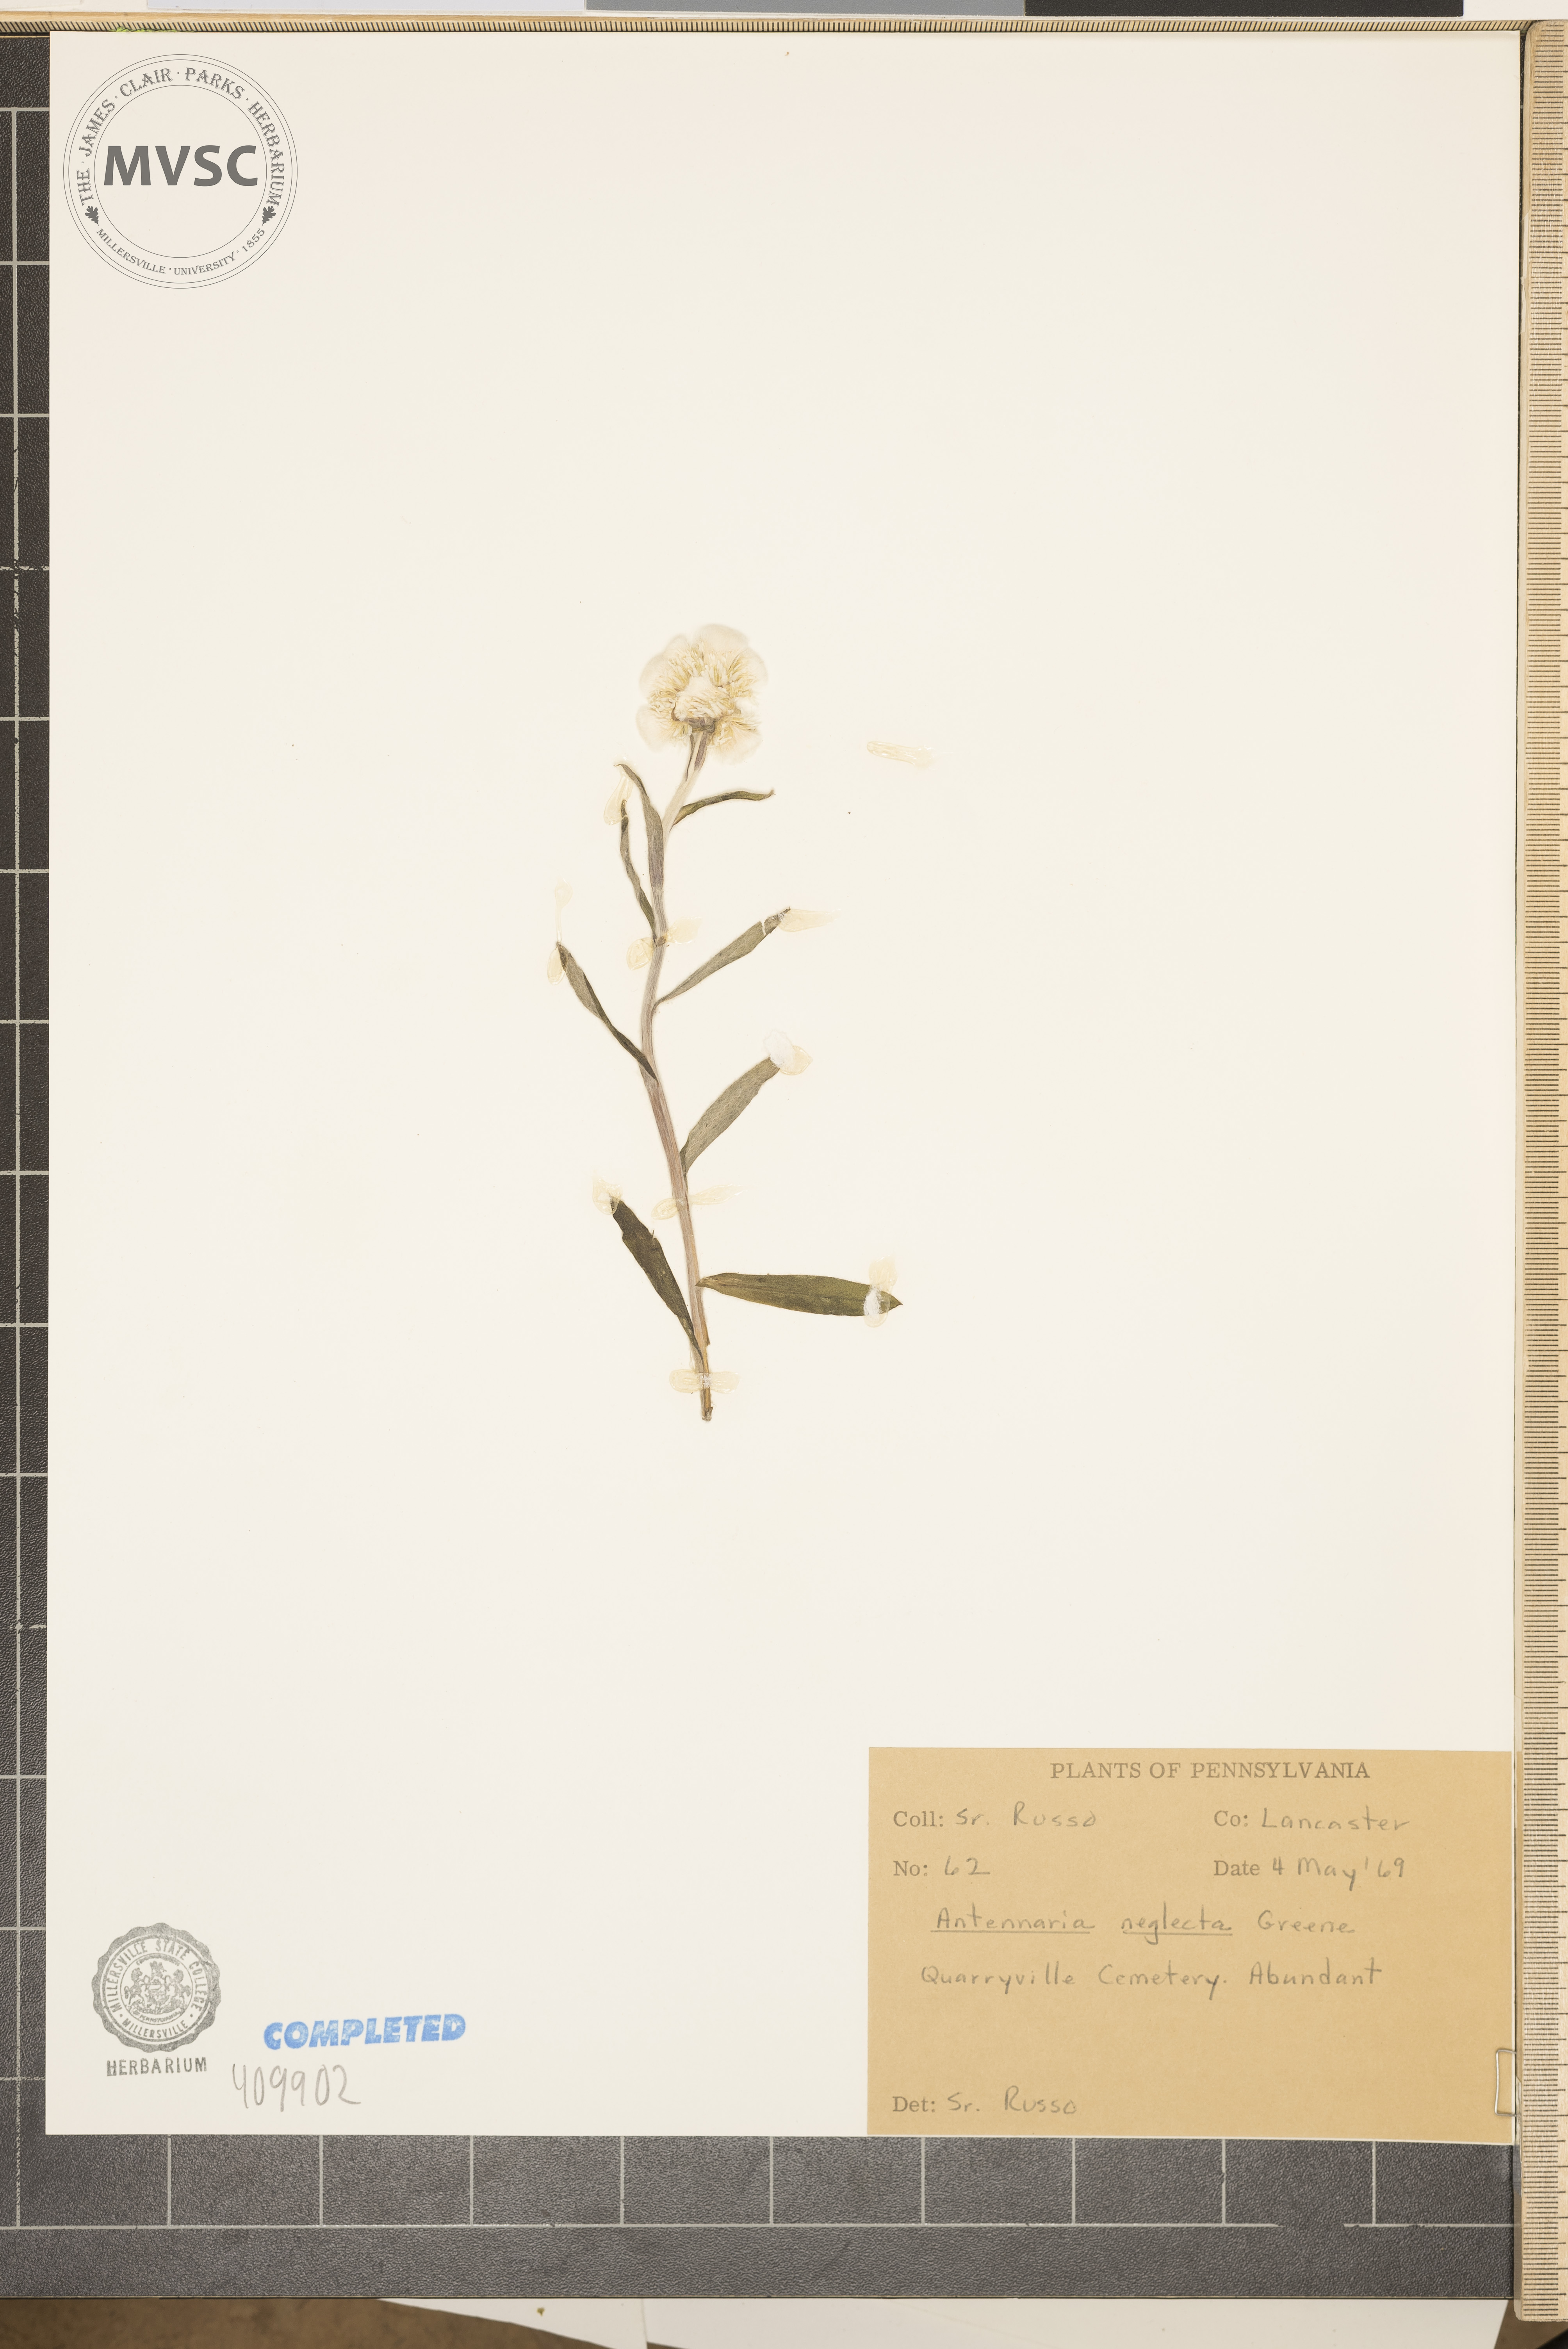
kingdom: Plantae
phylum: Tracheophyta
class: Magnoliopsida
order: Asterales
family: Asteraceae
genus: Antennaria
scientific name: Antennaria neglecta
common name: Field pussytoes
